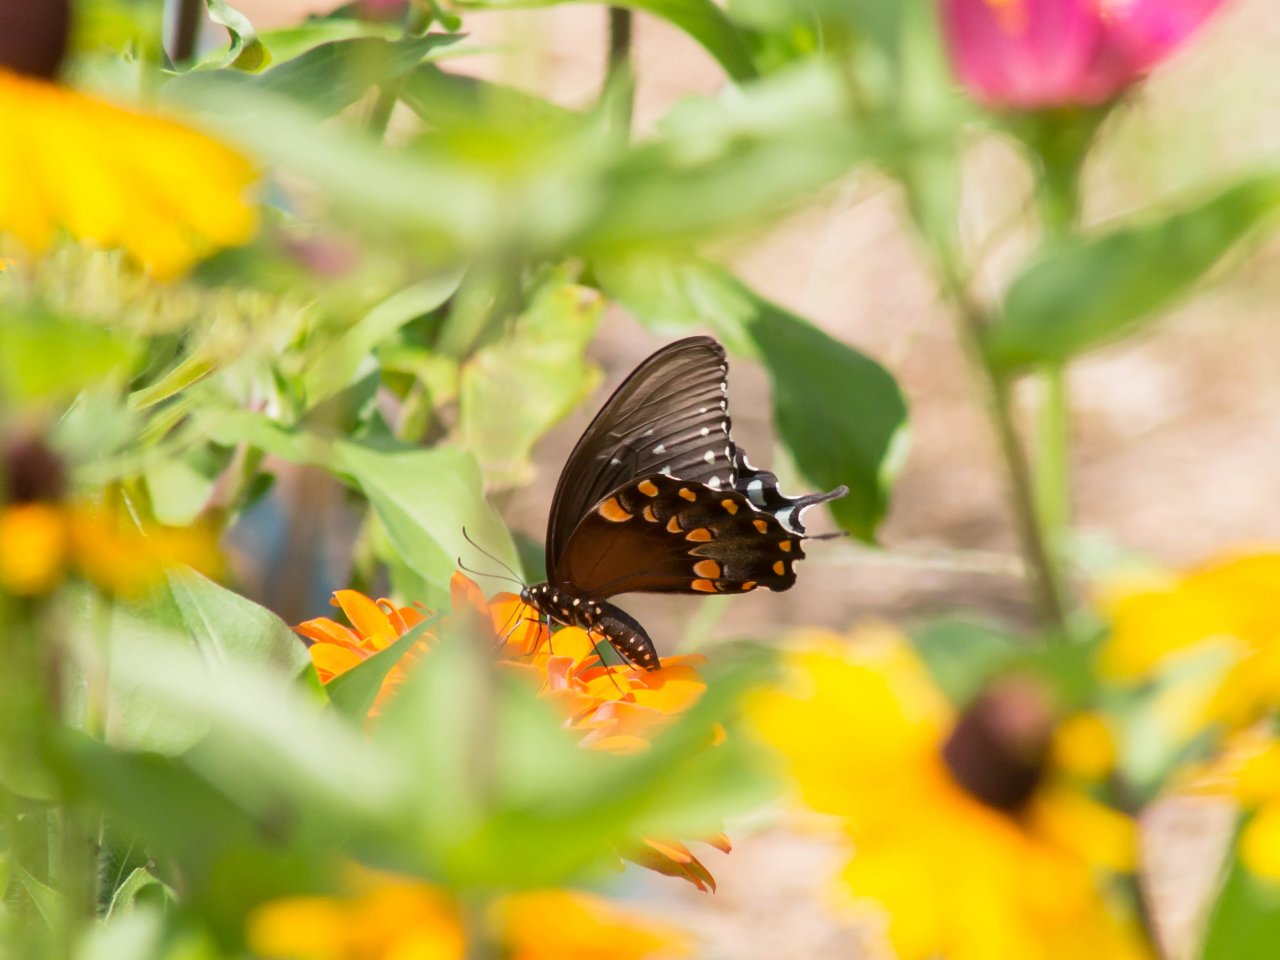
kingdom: Animalia
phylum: Arthropoda
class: Insecta
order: Lepidoptera
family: Papilionidae
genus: Pterourus
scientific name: Pterourus troilus
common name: Spicebush Swallowtail
